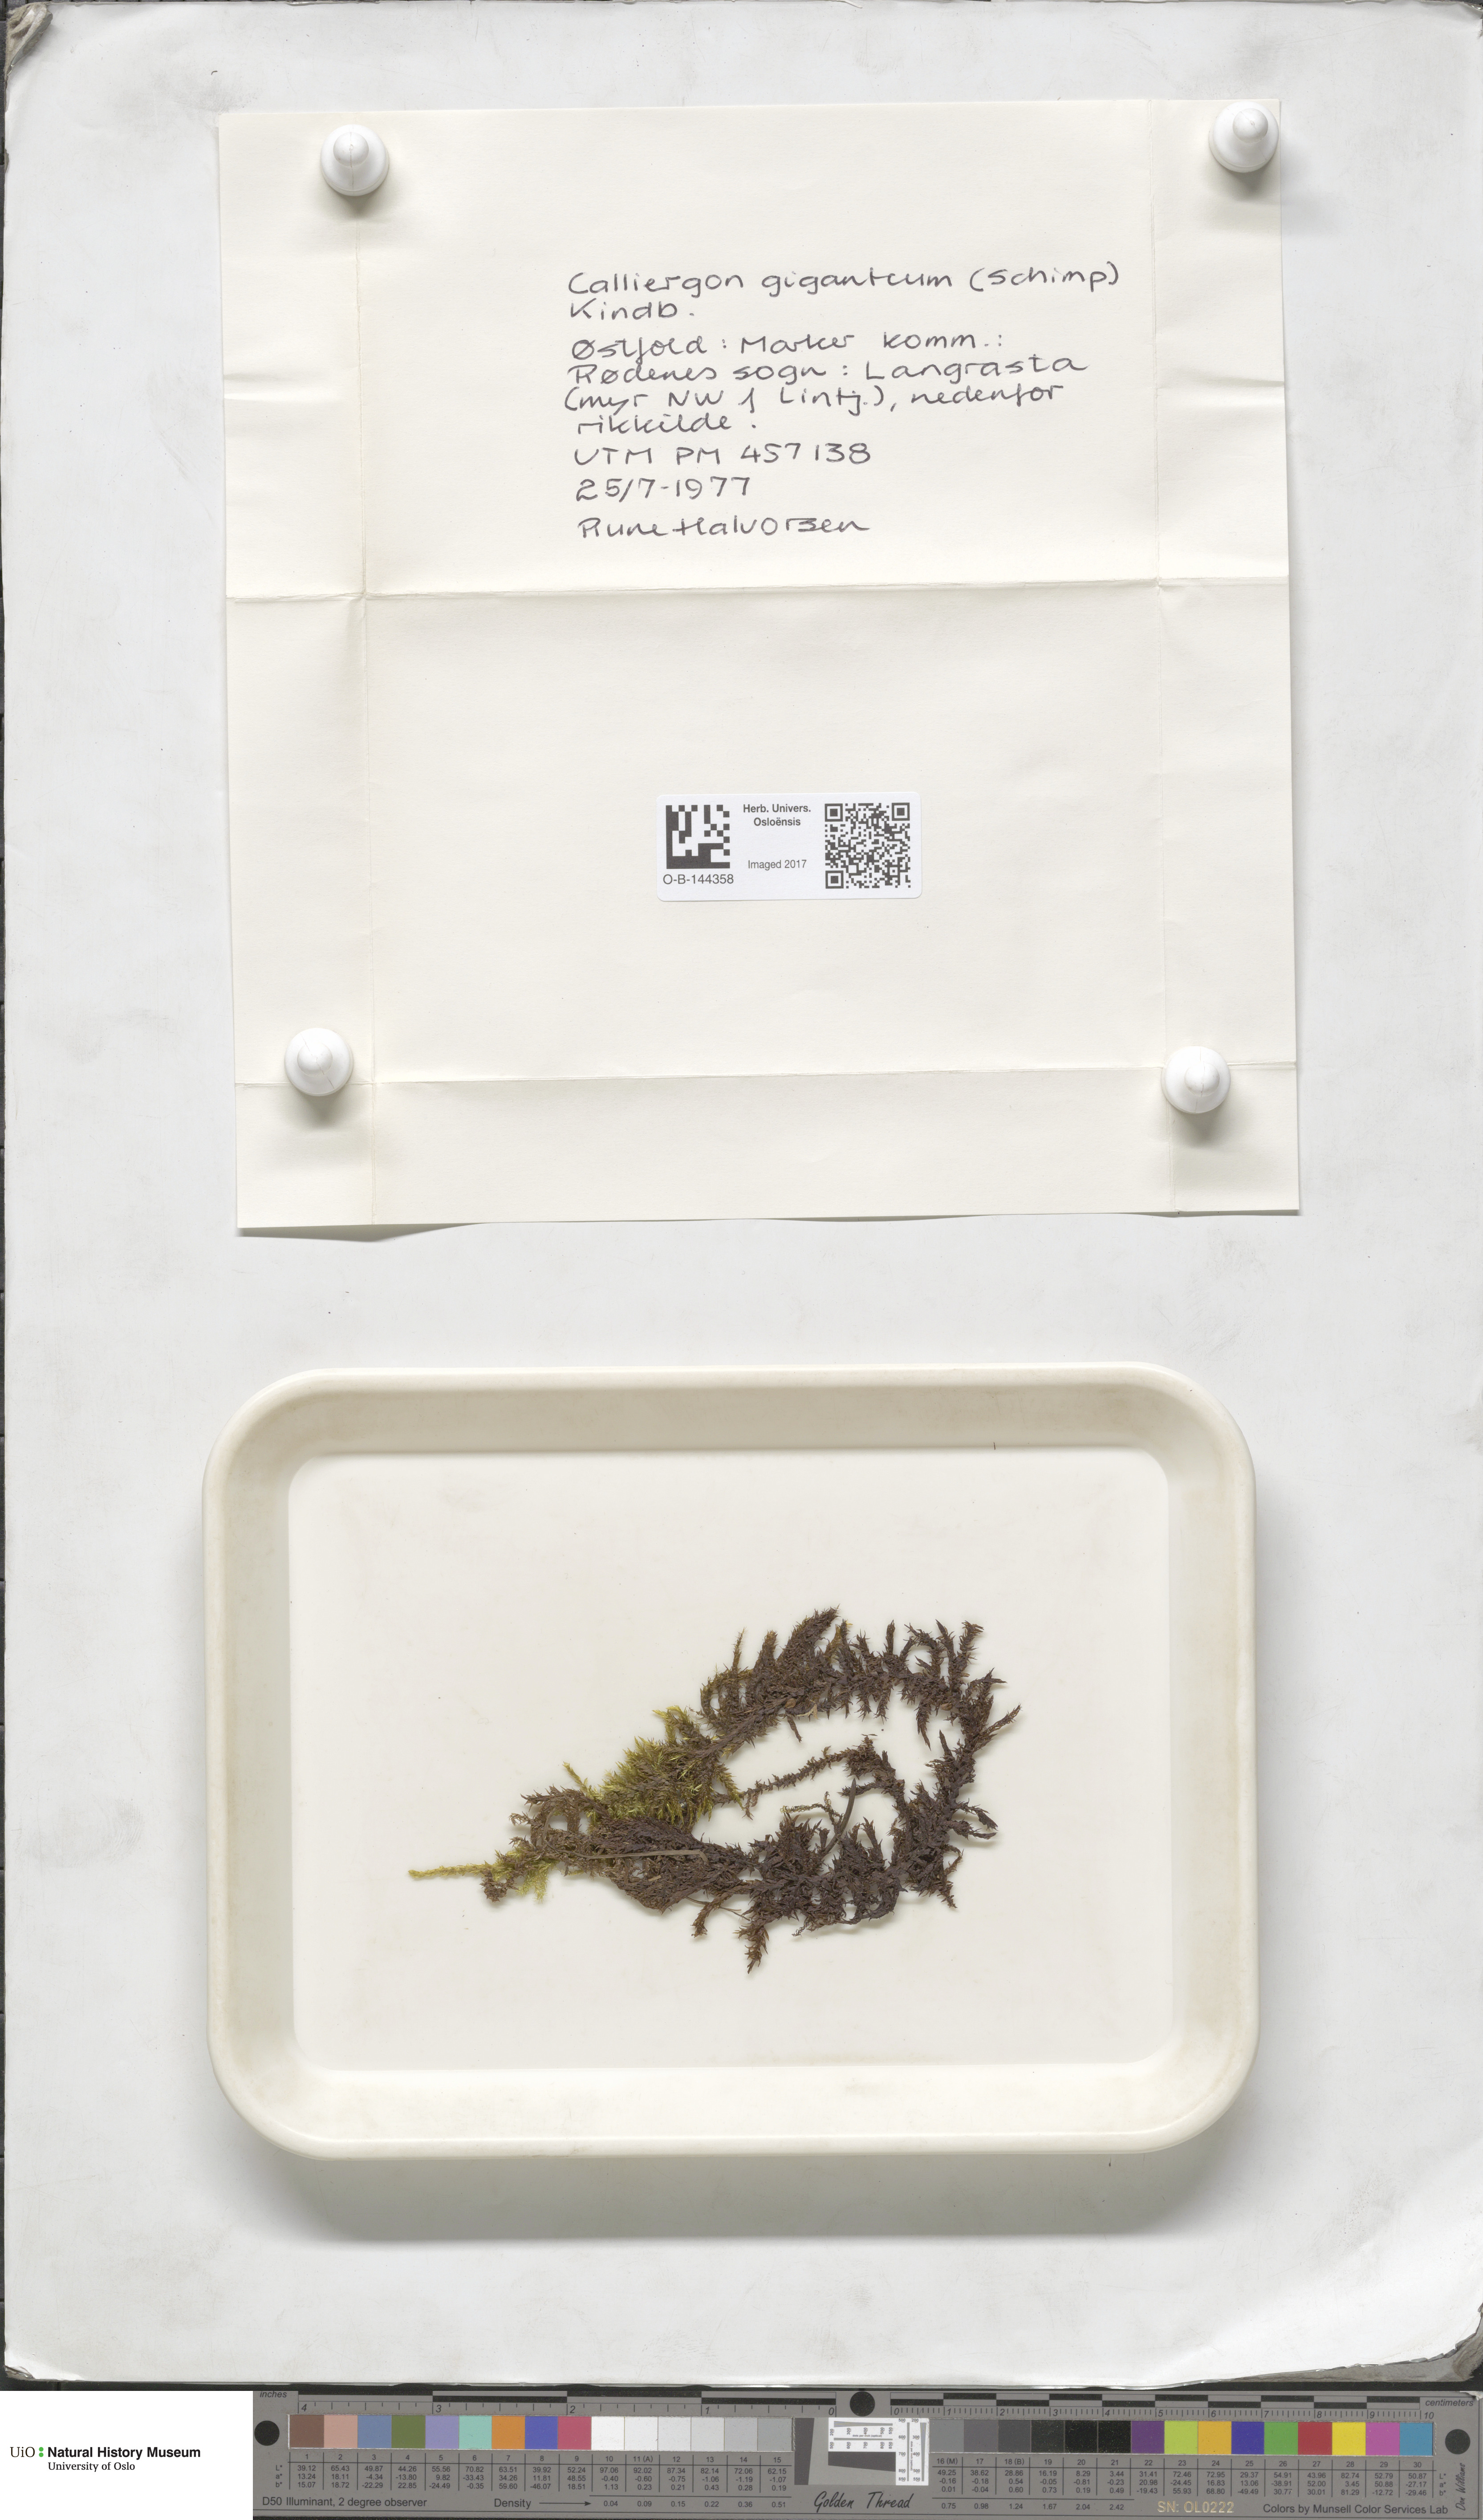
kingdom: Plantae
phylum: Bryophyta
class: Bryopsida
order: Hypnales
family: Calliergonaceae
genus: Calliergon
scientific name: Calliergon giganteum
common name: Giant spear moss
